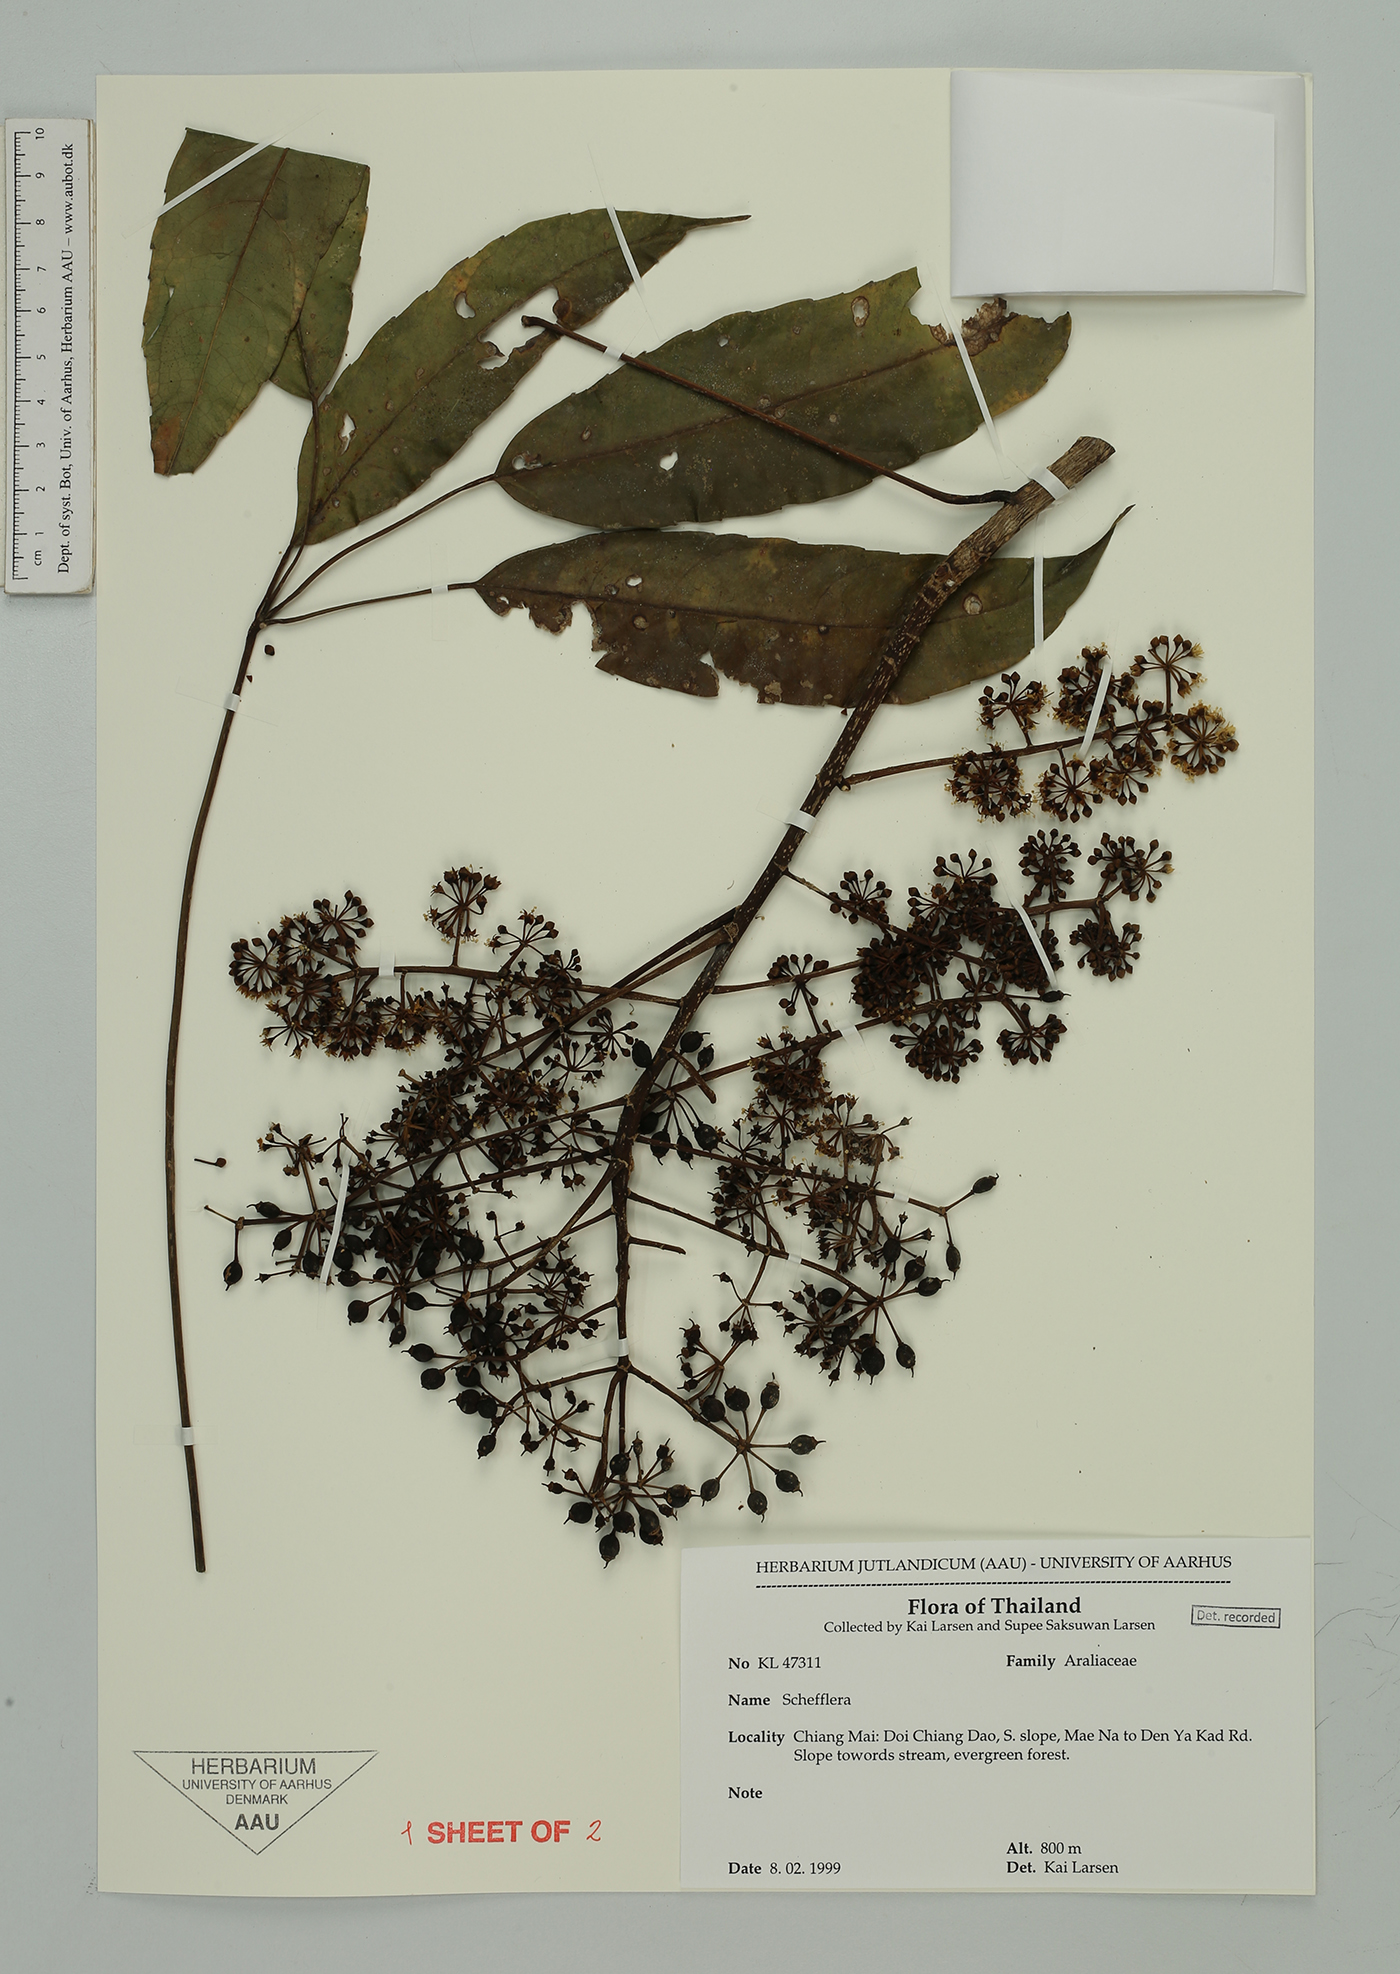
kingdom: Plantae
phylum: Tracheophyta
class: Magnoliopsida
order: Apiales
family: Araliaceae
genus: Schefflera
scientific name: Schefflera
